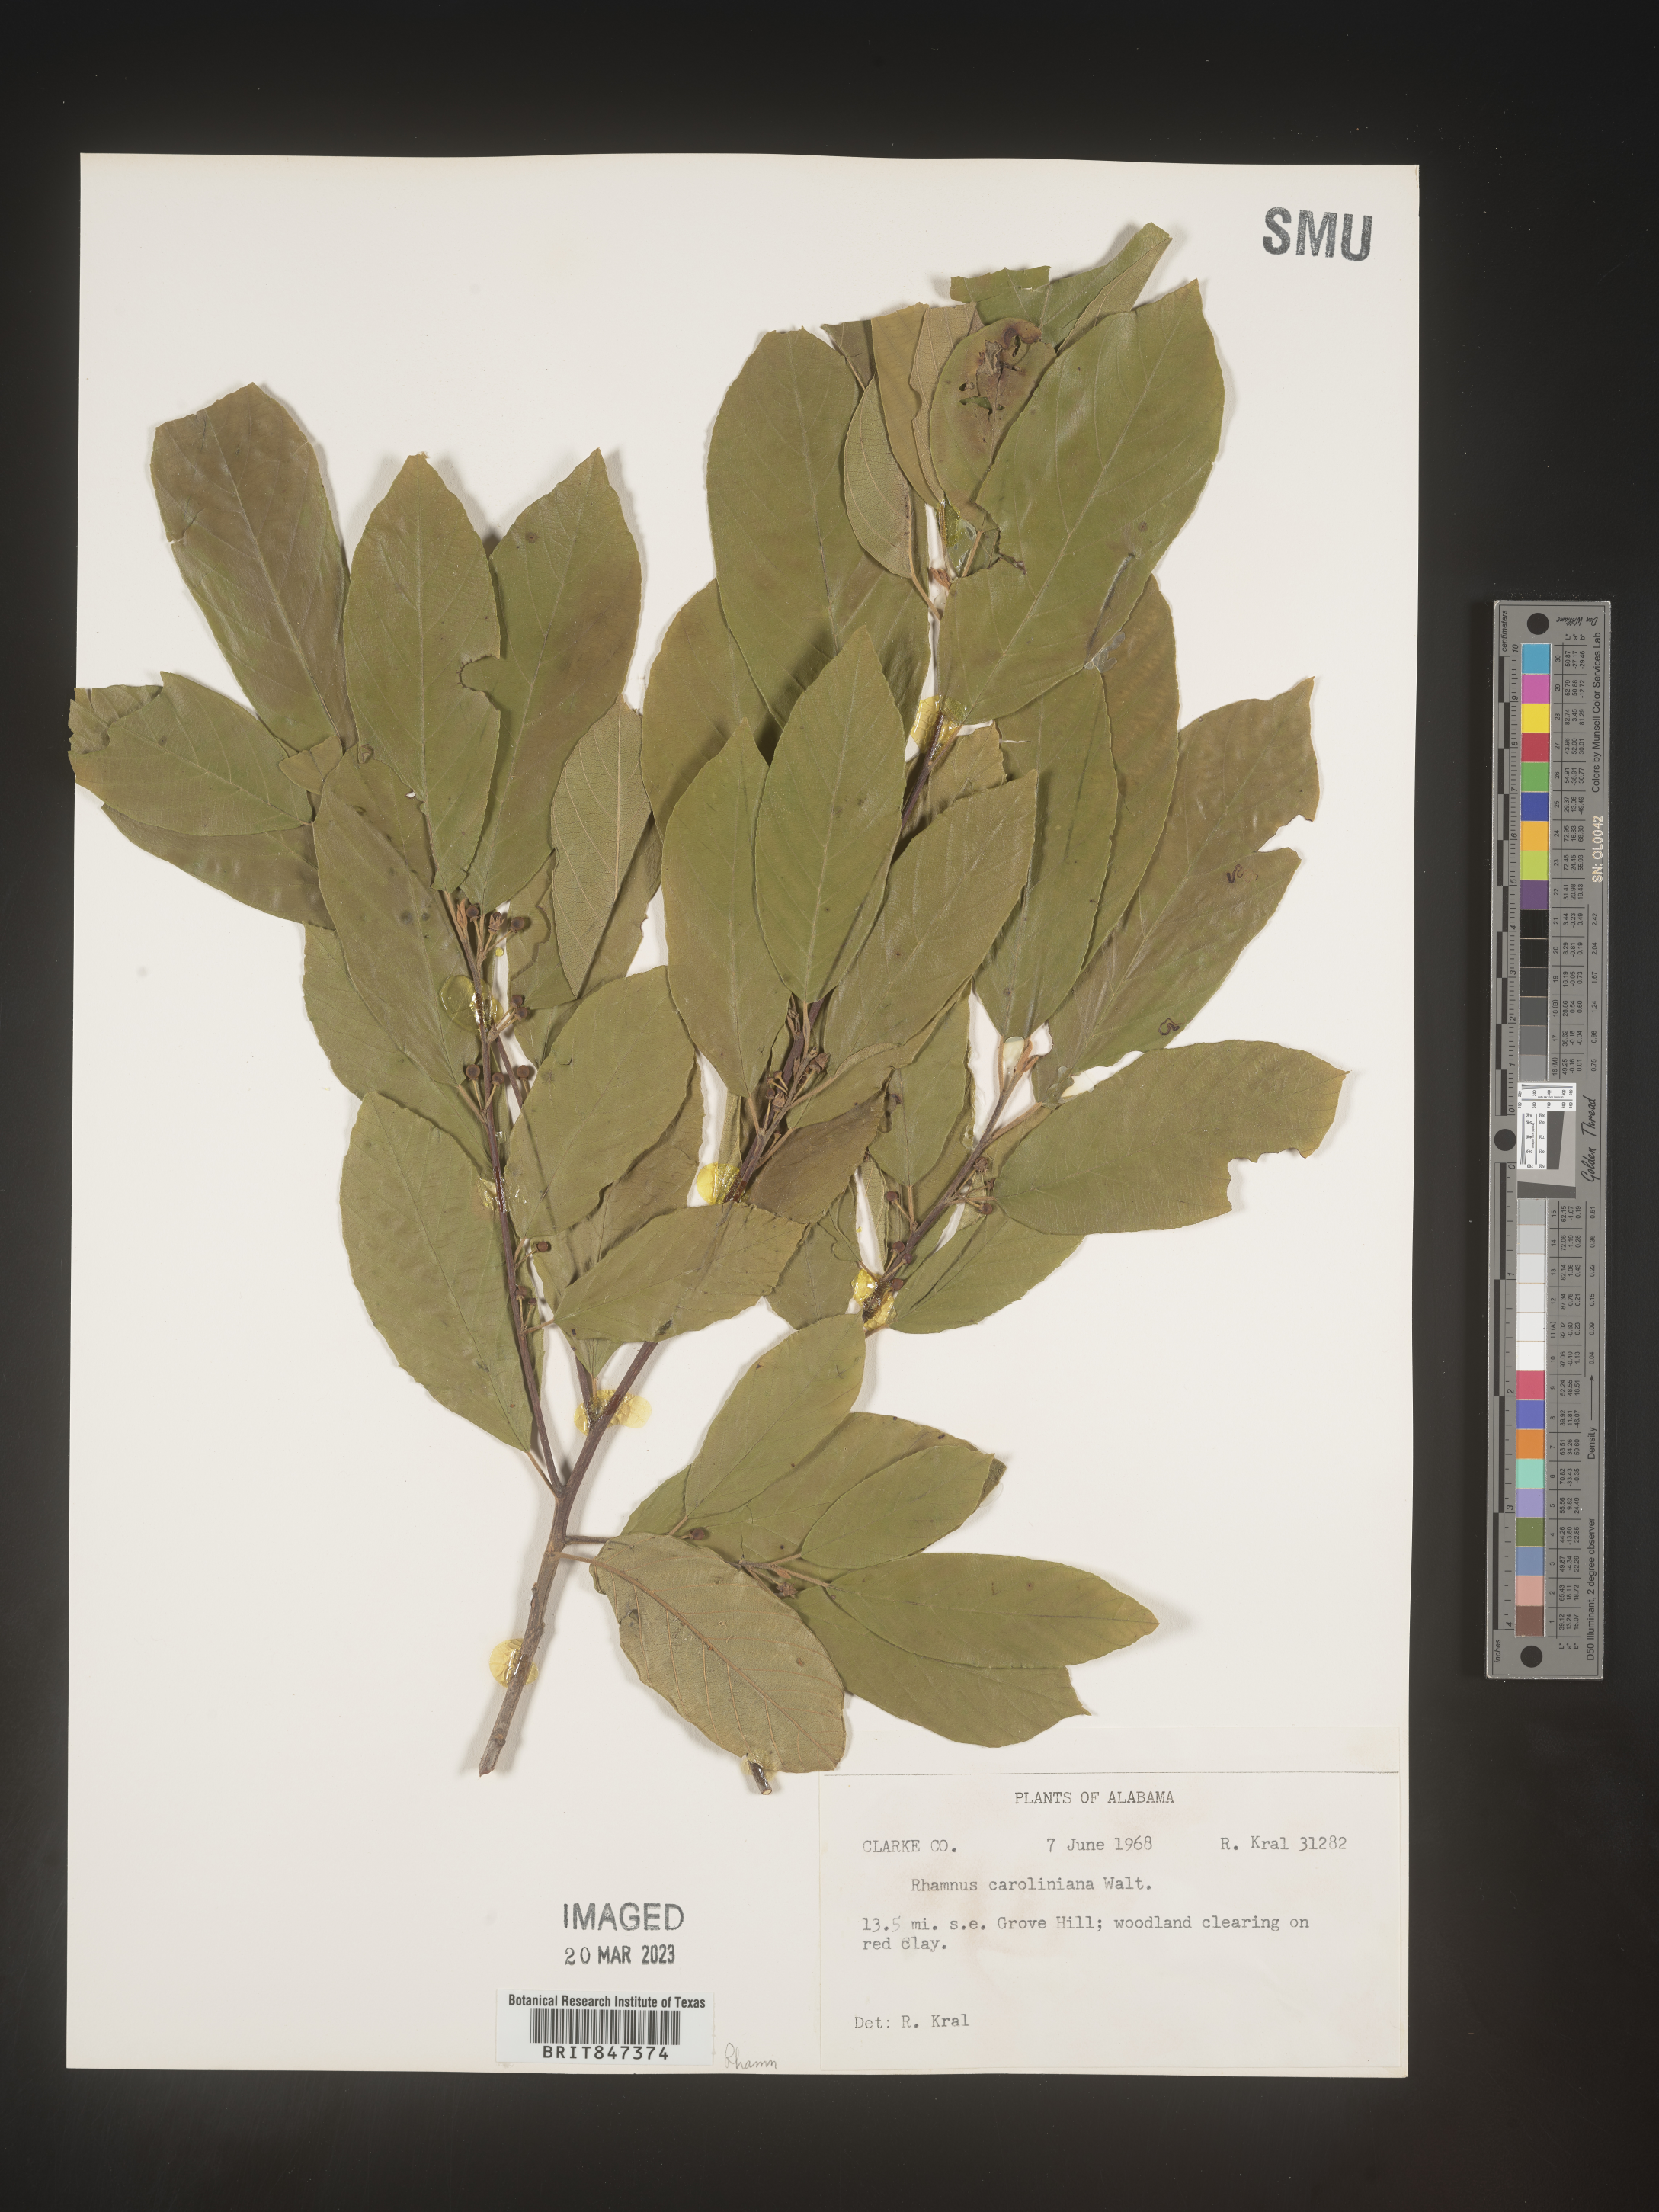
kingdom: Plantae
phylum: Tracheophyta
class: Magnoliopsida
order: Rosales
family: Rhamnaceae
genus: Frangula
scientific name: Frangula caroliniana
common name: Carolina buckthorn
